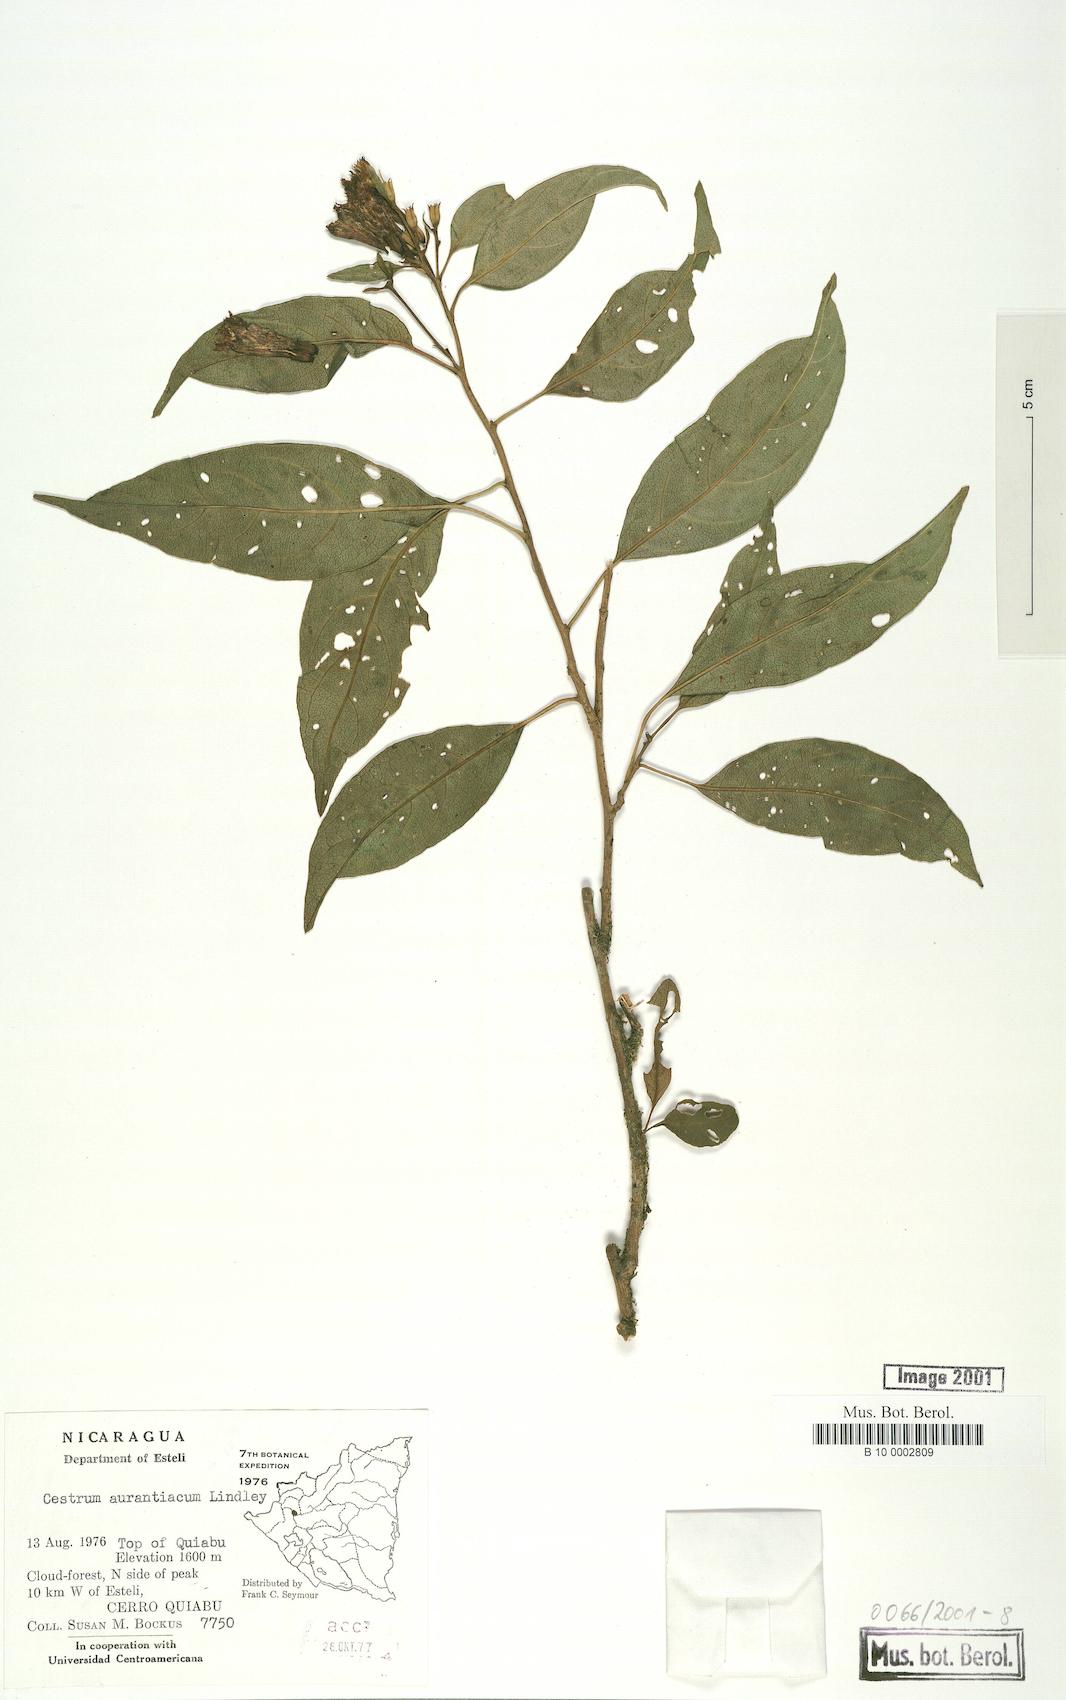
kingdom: Plantae
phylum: Tracheophyta
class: Magnoliopsida
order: Solanales
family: Solanaceae
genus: Cestrum
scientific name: Cestrum aurantiacum
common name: Orange cestrum
